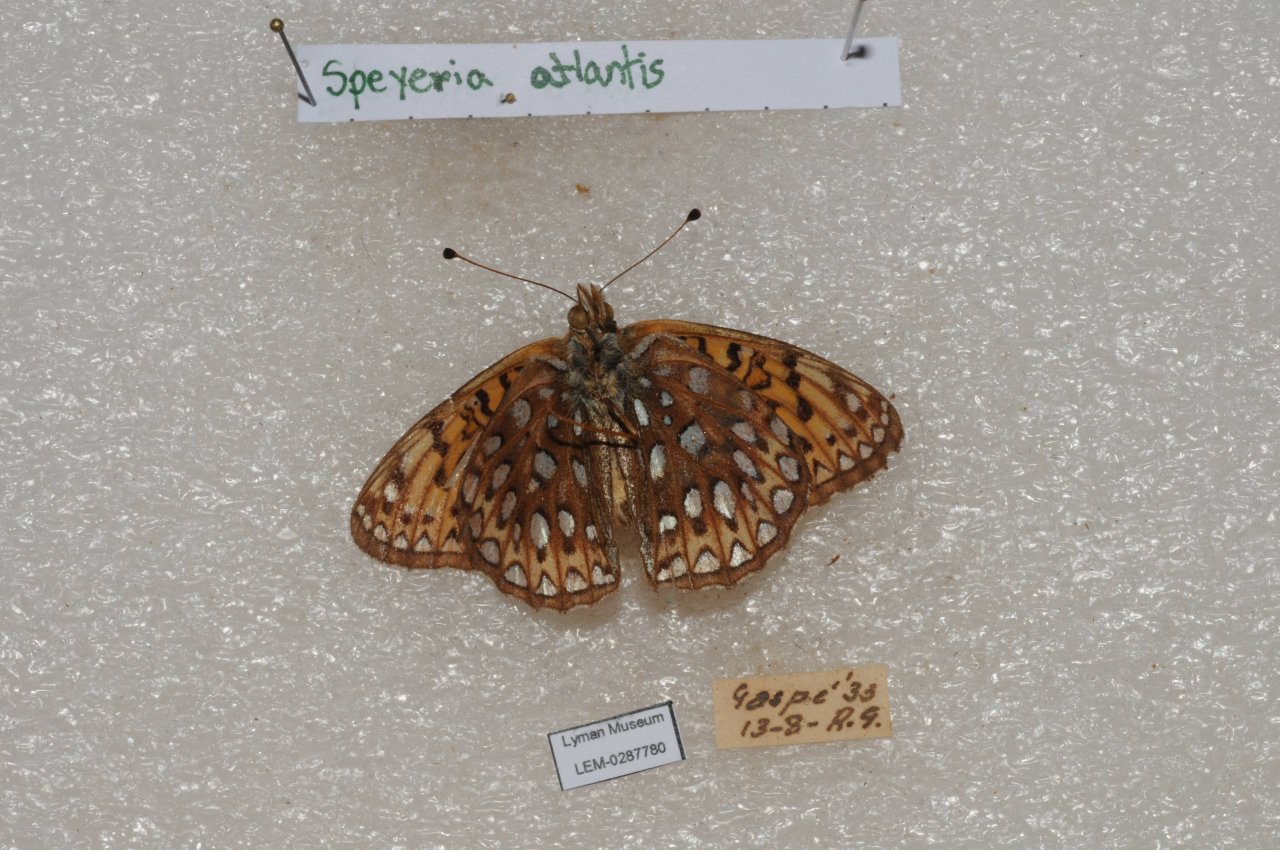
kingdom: Animalia
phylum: Arthropoda
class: Insecta
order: Lepidoptera
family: Nymphalidae
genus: Speyeria
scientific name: Speyeria atlantis
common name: Atlantis Fritillary
